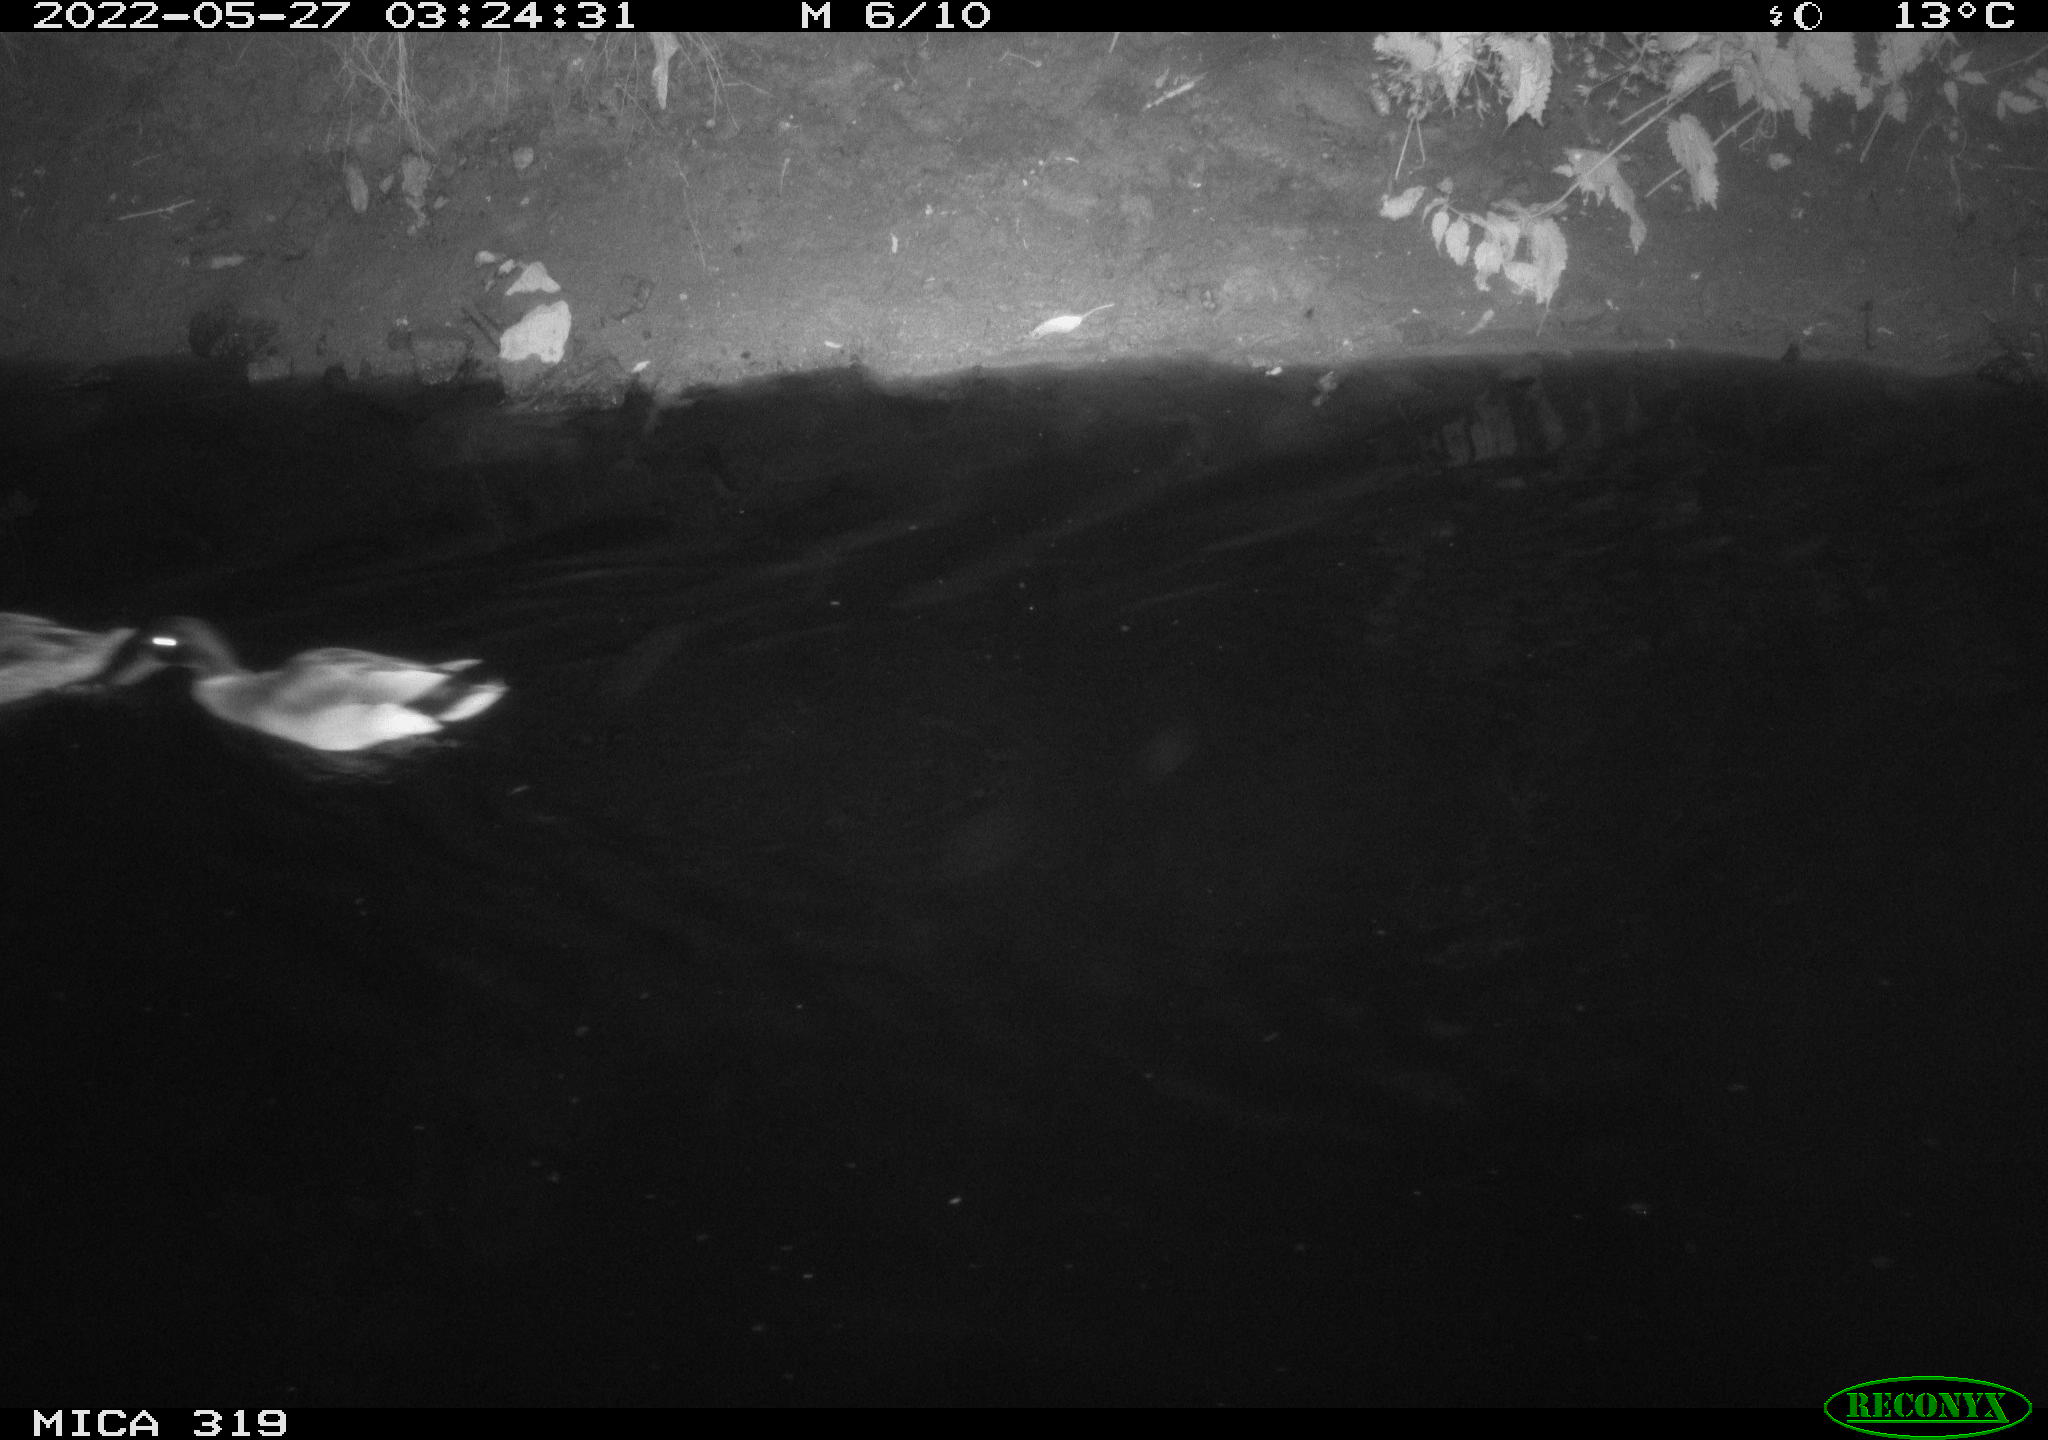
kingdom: Animalia
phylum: Chordata
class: Aves
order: Anseriformes
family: Anatidae
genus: Anas
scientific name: Anas
